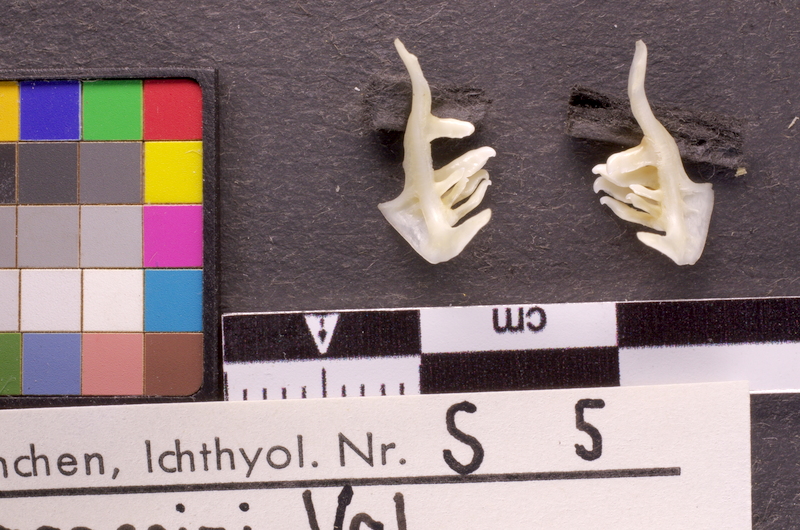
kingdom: Animalia
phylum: Chordata
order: Cypriniformes
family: Cyprinidae
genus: Telestes
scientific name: Telestes souffia
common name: Souffia
